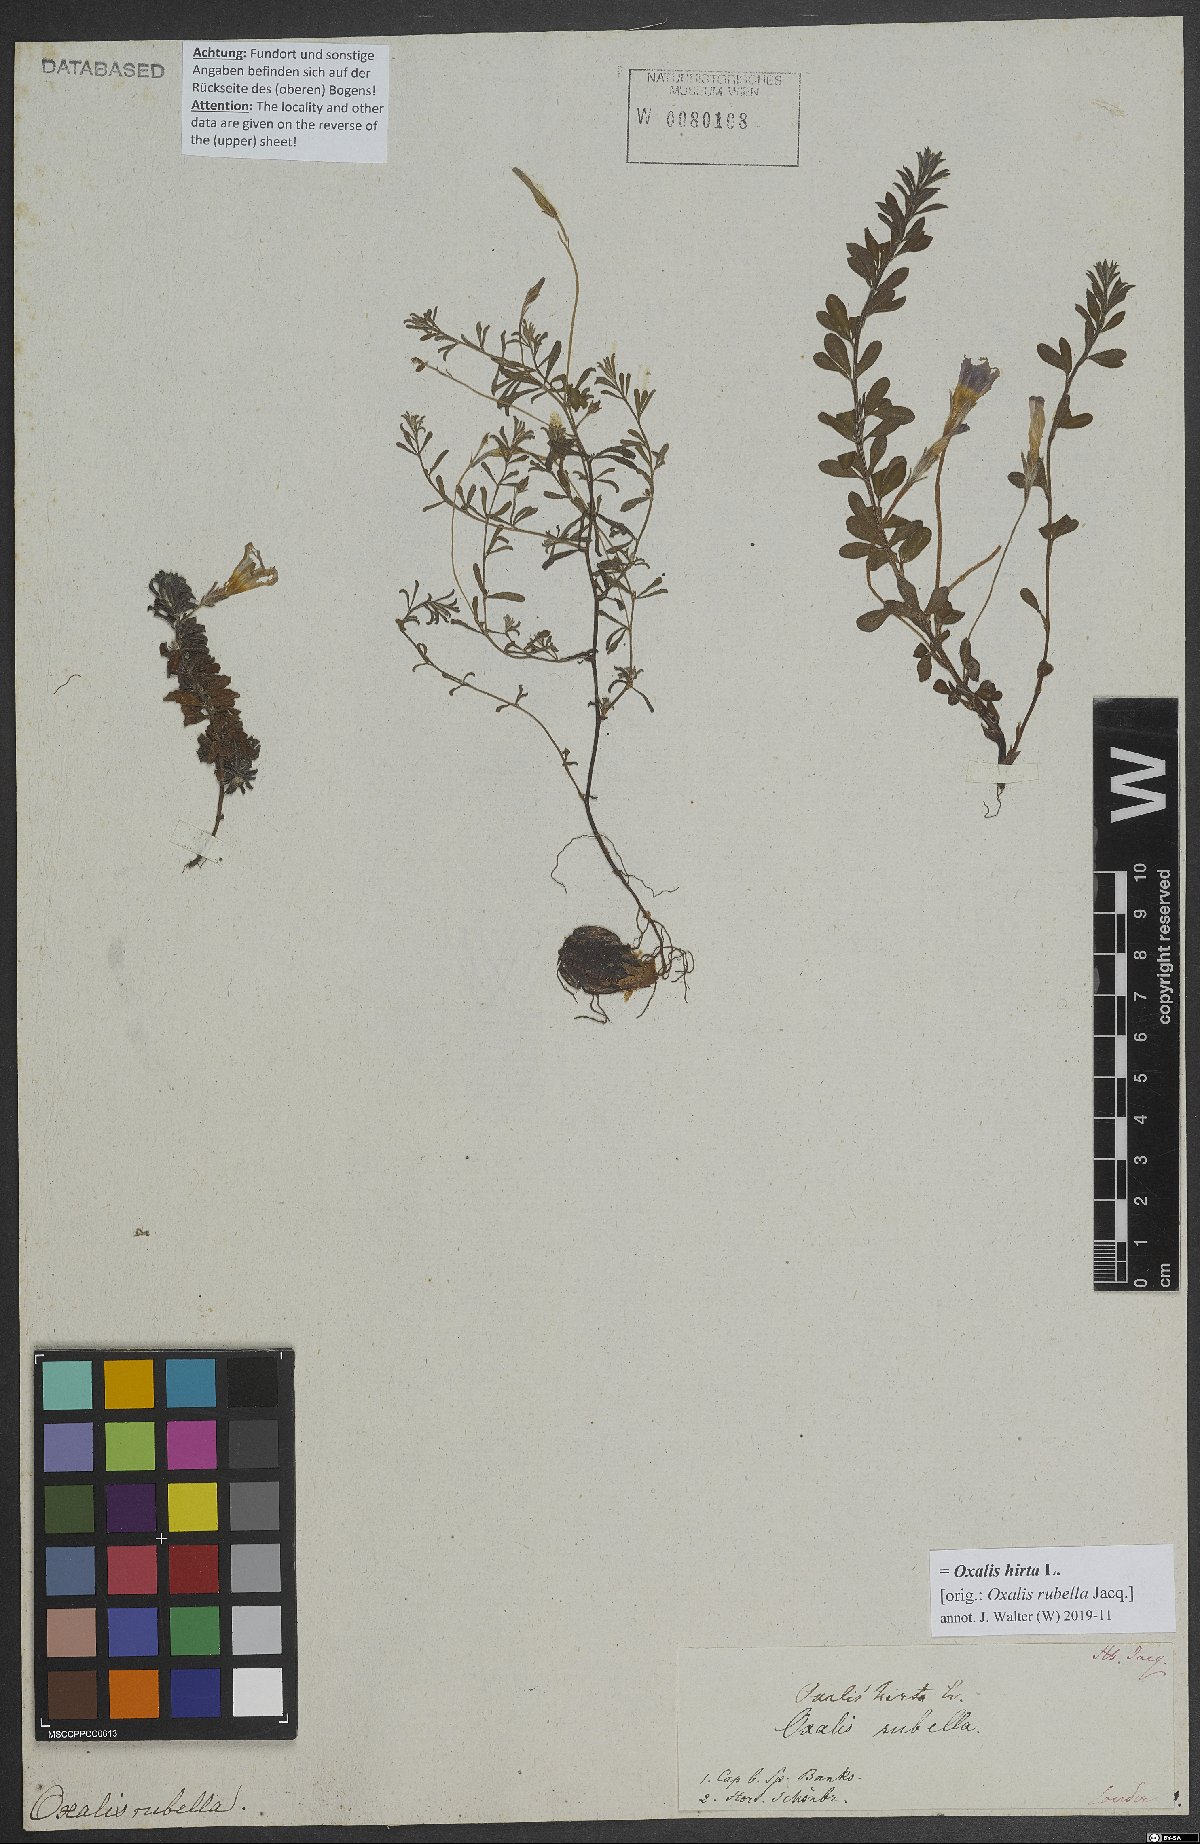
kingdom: Plantae
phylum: Tracheophyta
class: Magnoliopsida
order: Oxalidales
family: Oxalidaceae
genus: Oxalis
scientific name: Oxalis hirta
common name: Tropical woodsorrel
